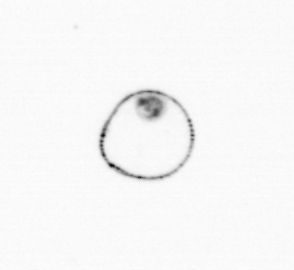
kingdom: Chromista
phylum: Myzozoa
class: Dinophyceae
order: Noctilucales
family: Noctilucaceae
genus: Noctiluca
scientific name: Noctiluca scintillans
